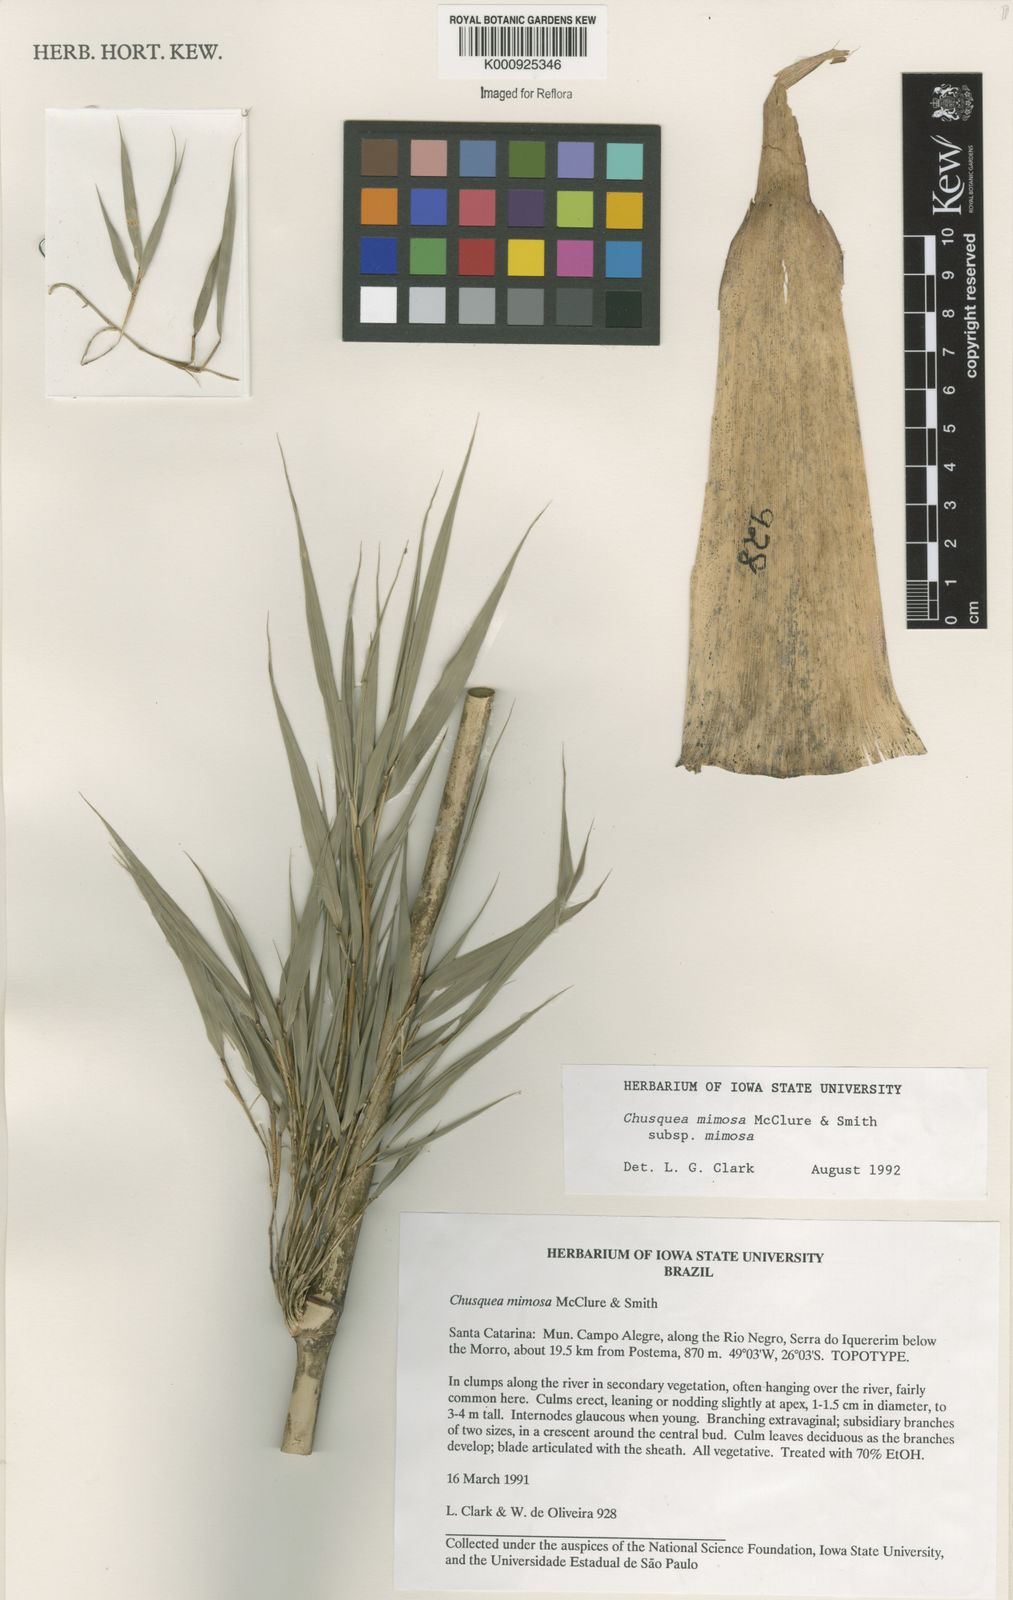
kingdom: Plantae
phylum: Tracheophyta
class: Liliopsida
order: Poales
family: Poaceae
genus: Chusquea
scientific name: Chusquea mimosa
